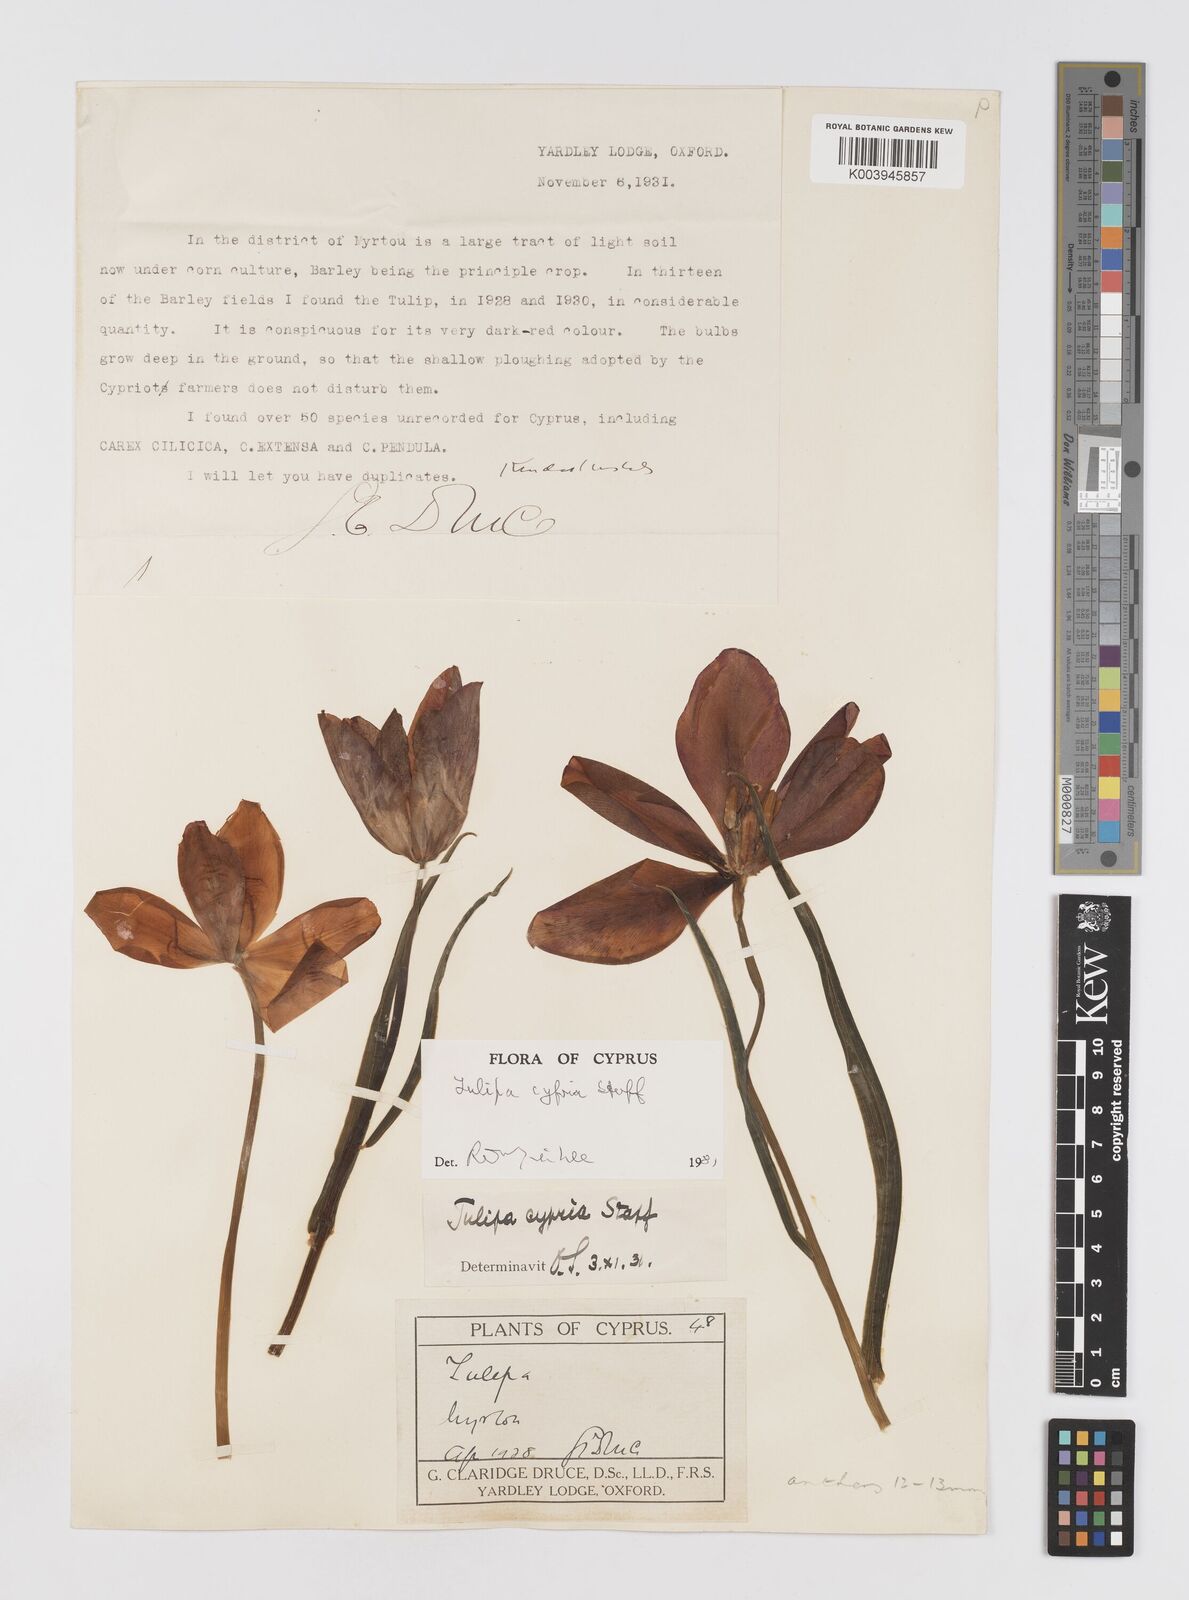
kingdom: Plantae
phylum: Tracheophyta
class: Liliopsida
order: Liliales
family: Liliaceae
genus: Tulipa
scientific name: Tulipa cypria
